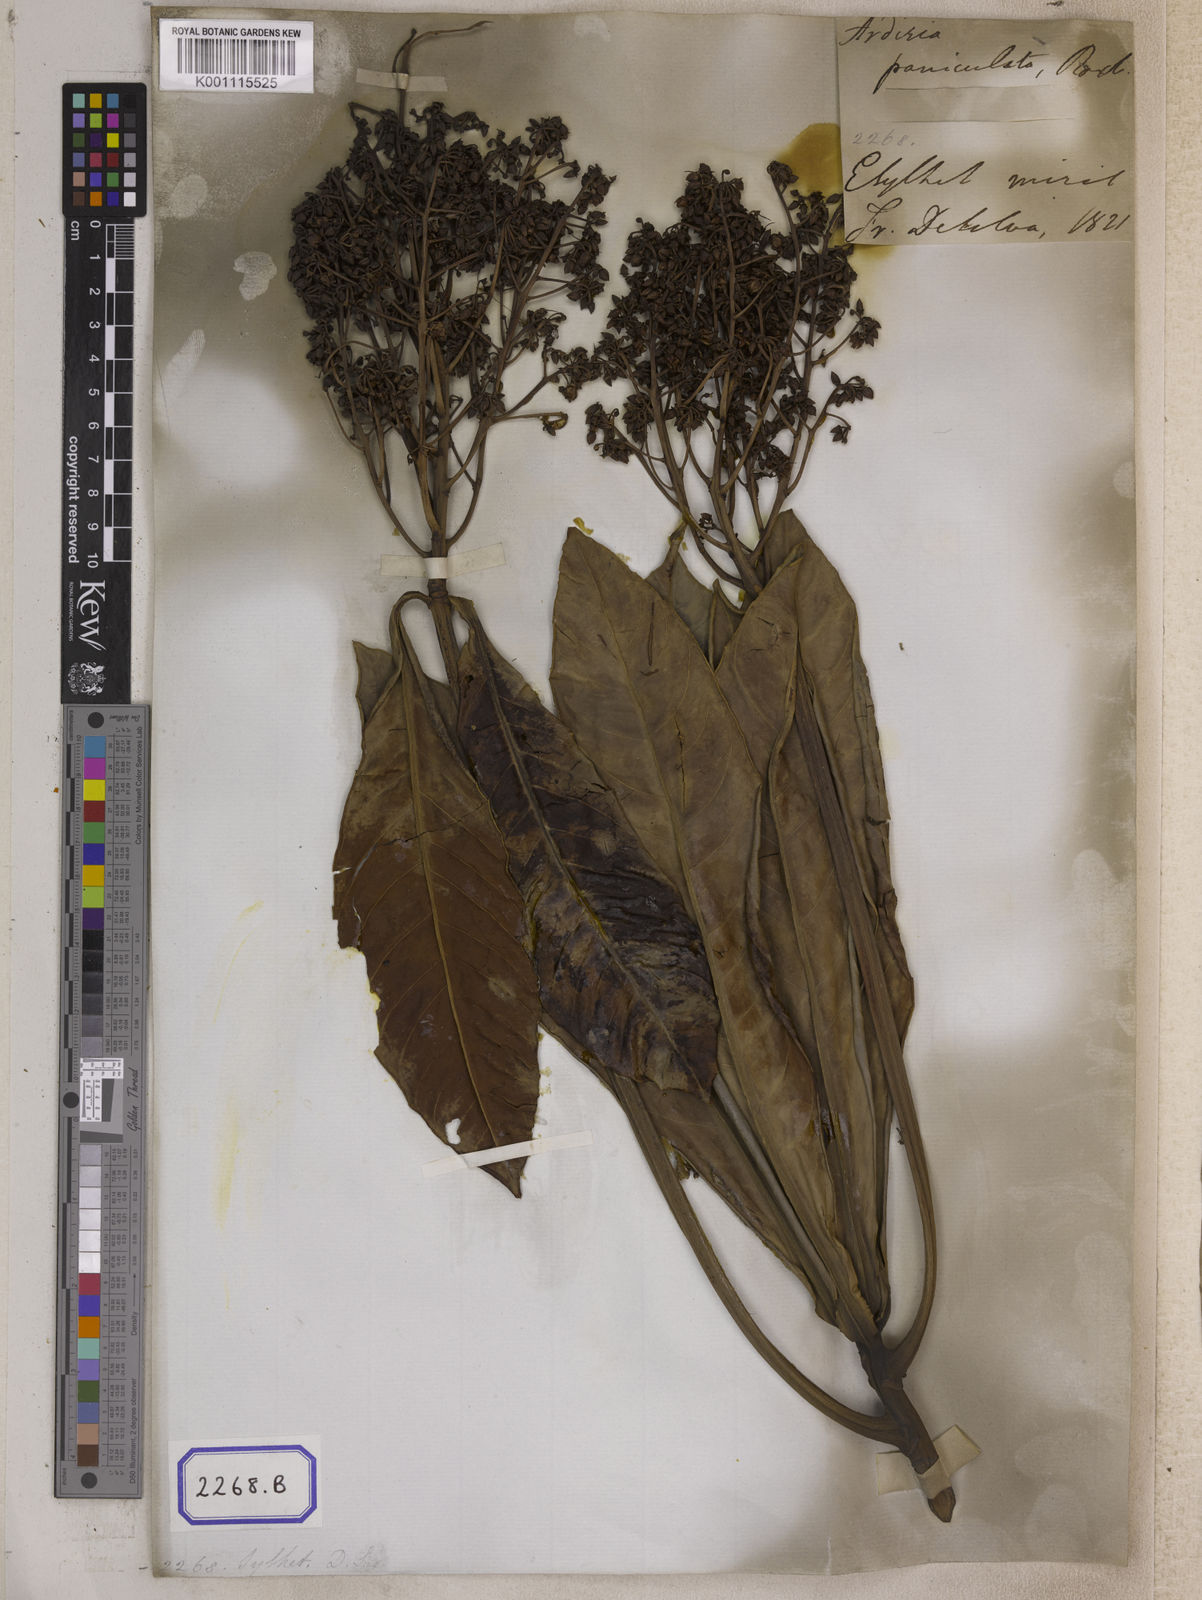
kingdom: Plantae
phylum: Tracheophyta
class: Magnoliopsida
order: Ericales
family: Primulaceae
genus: Ardisia
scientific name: Ardisia colorata
